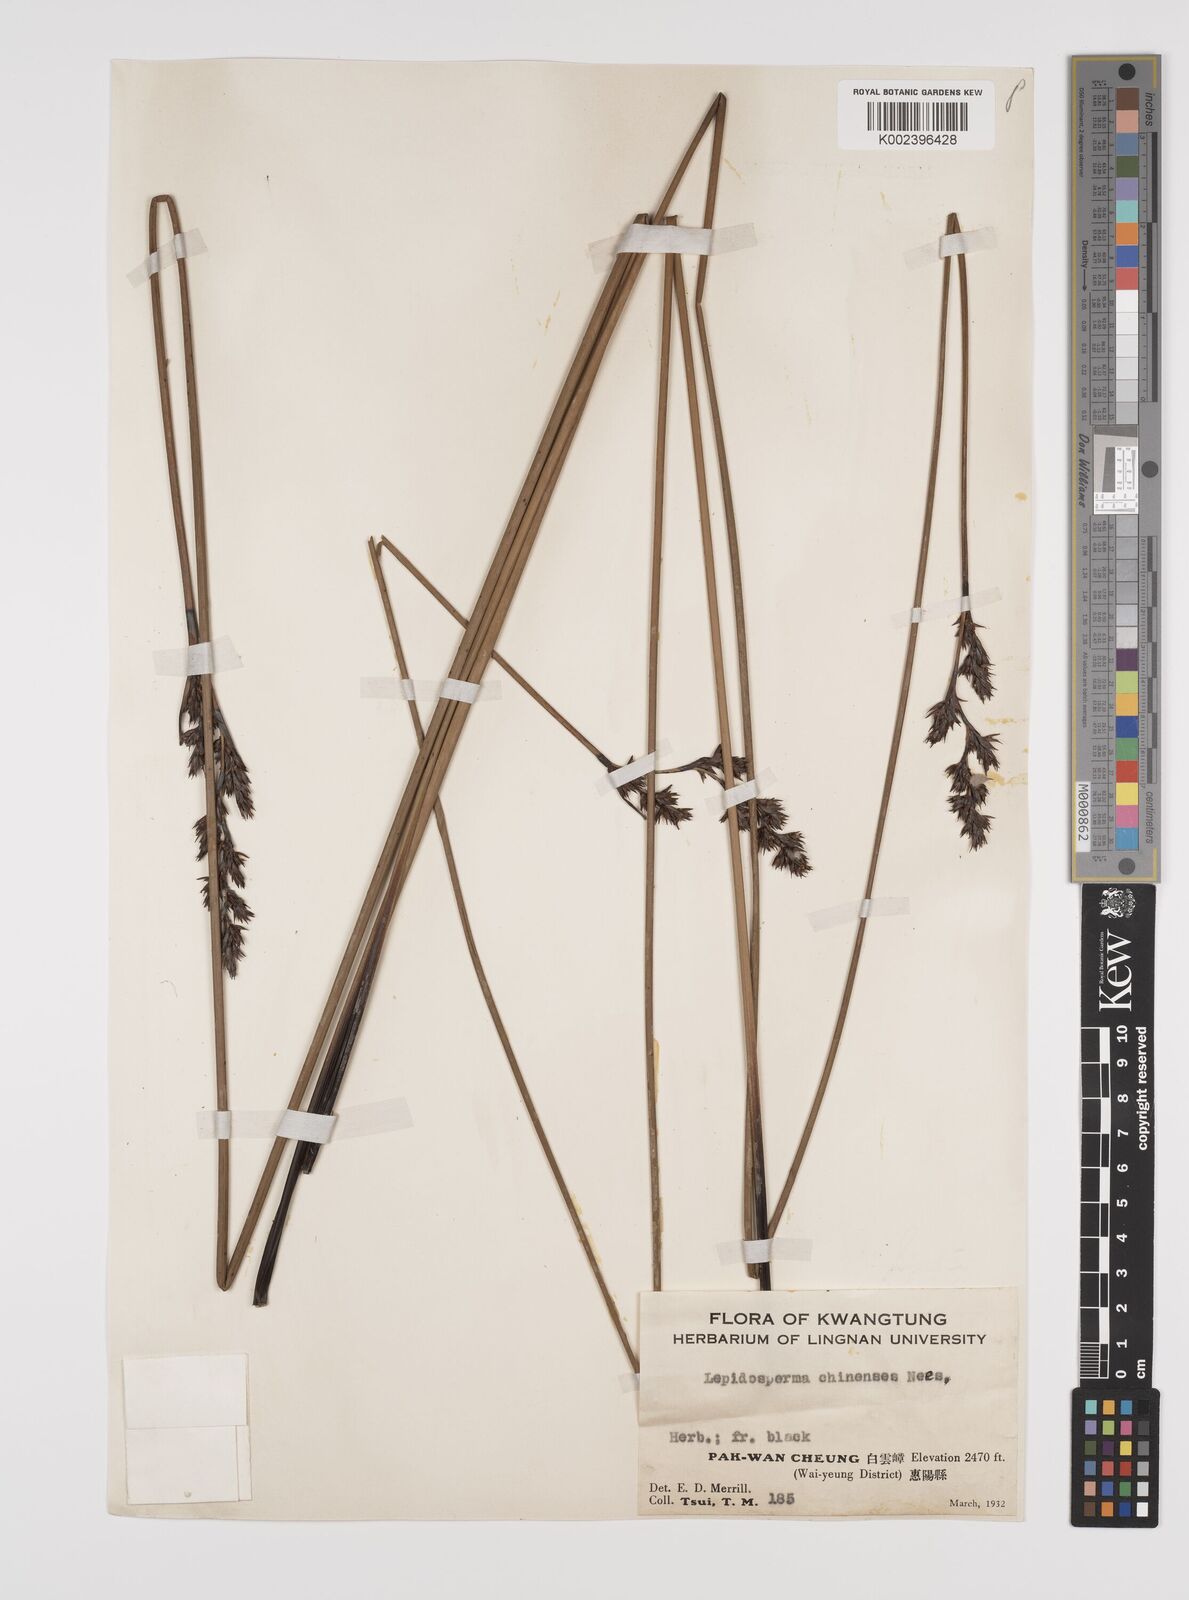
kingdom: Plantae
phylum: Tracheophyta
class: Liliopsida
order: Poales
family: Cyperaceae
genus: Lepidosperma
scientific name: Lepidosperma chinense
